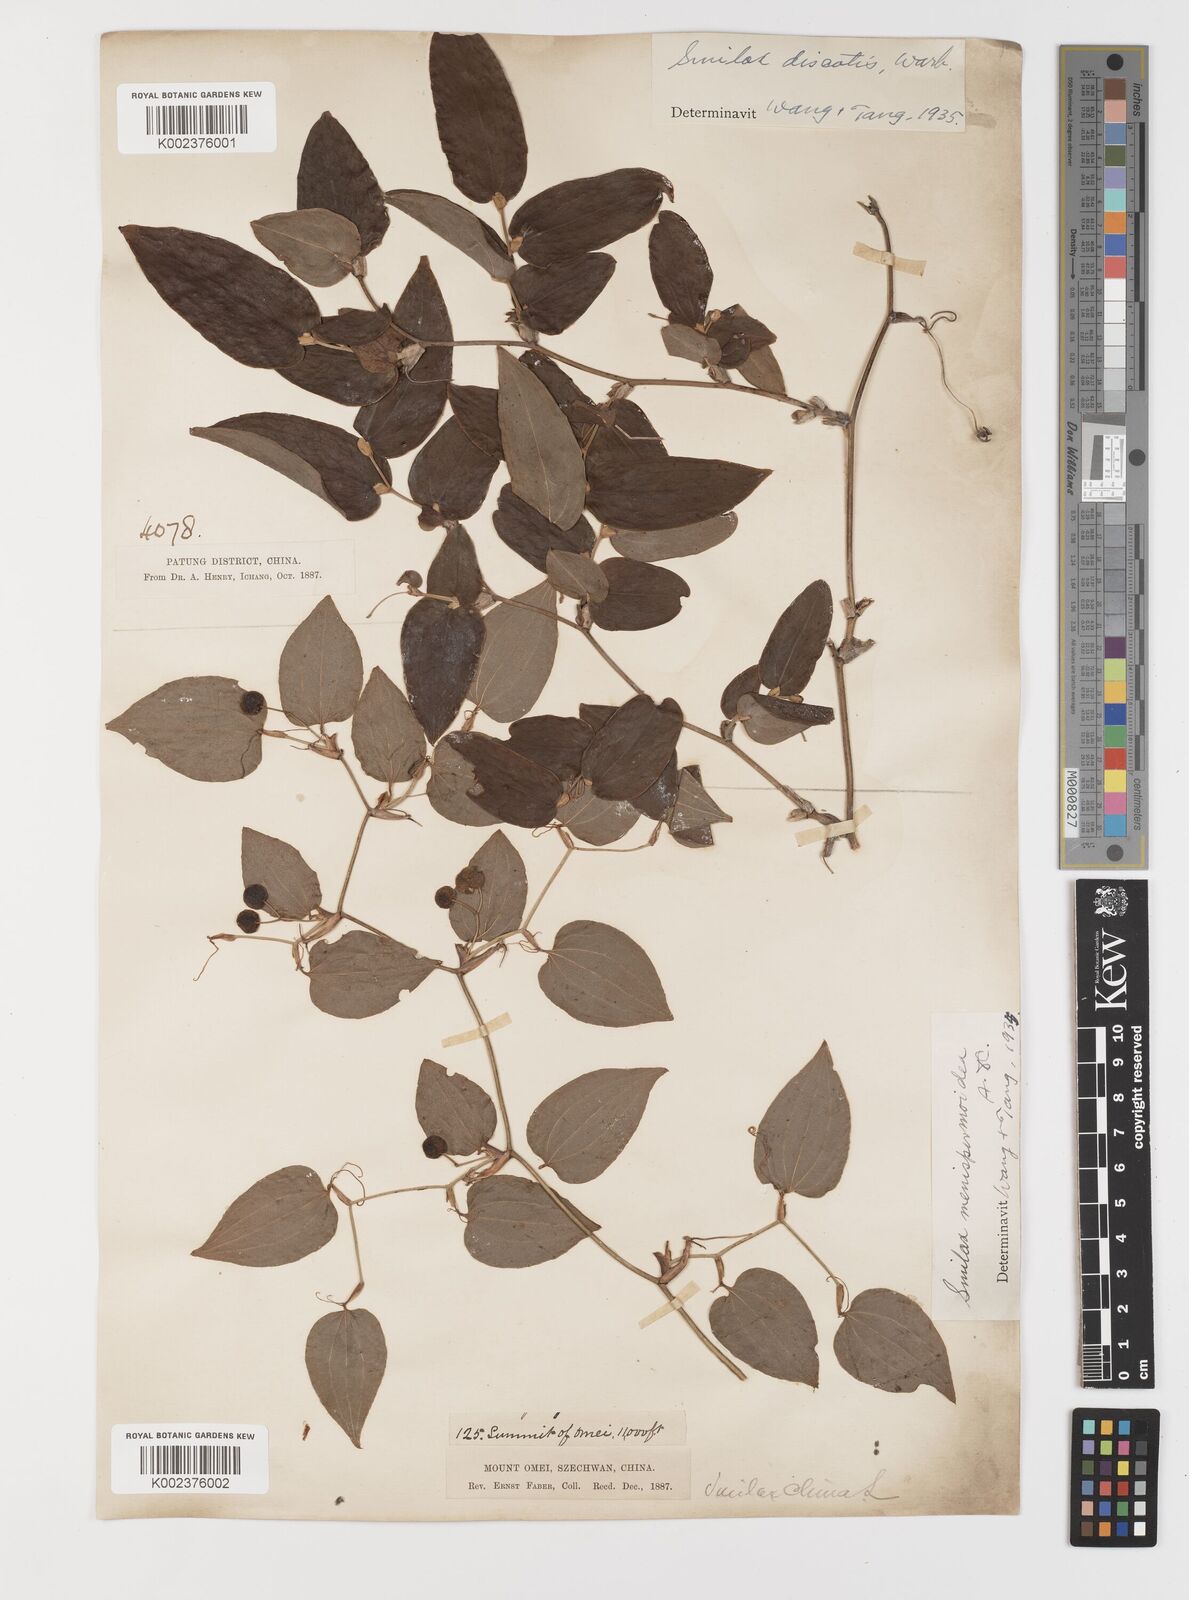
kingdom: Plantae
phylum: Tracheophyta
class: Liliopsida
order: Liliales
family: Smilacaceae
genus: Smilax
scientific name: Smilax discotis
